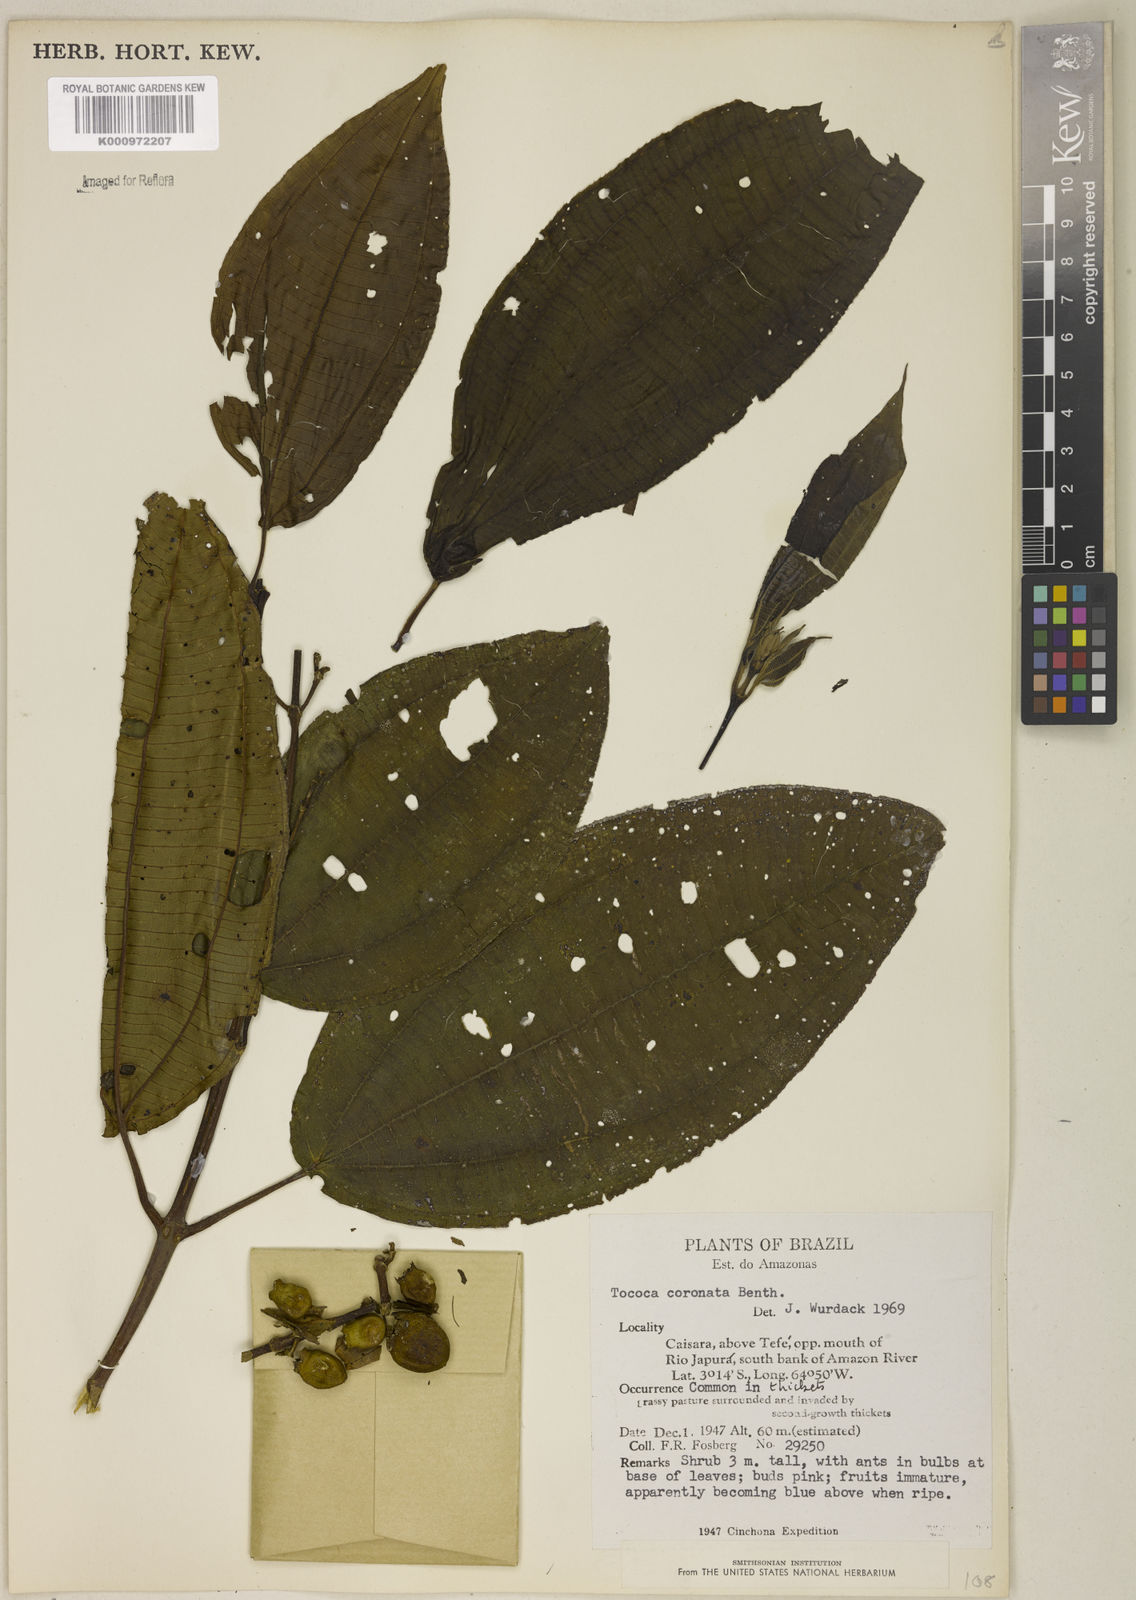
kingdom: Plantae
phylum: Tracheophyta
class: Magnoliopsida
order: Myrtales
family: Melastomataceae
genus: Miconia
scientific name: Miconia tococoronata
